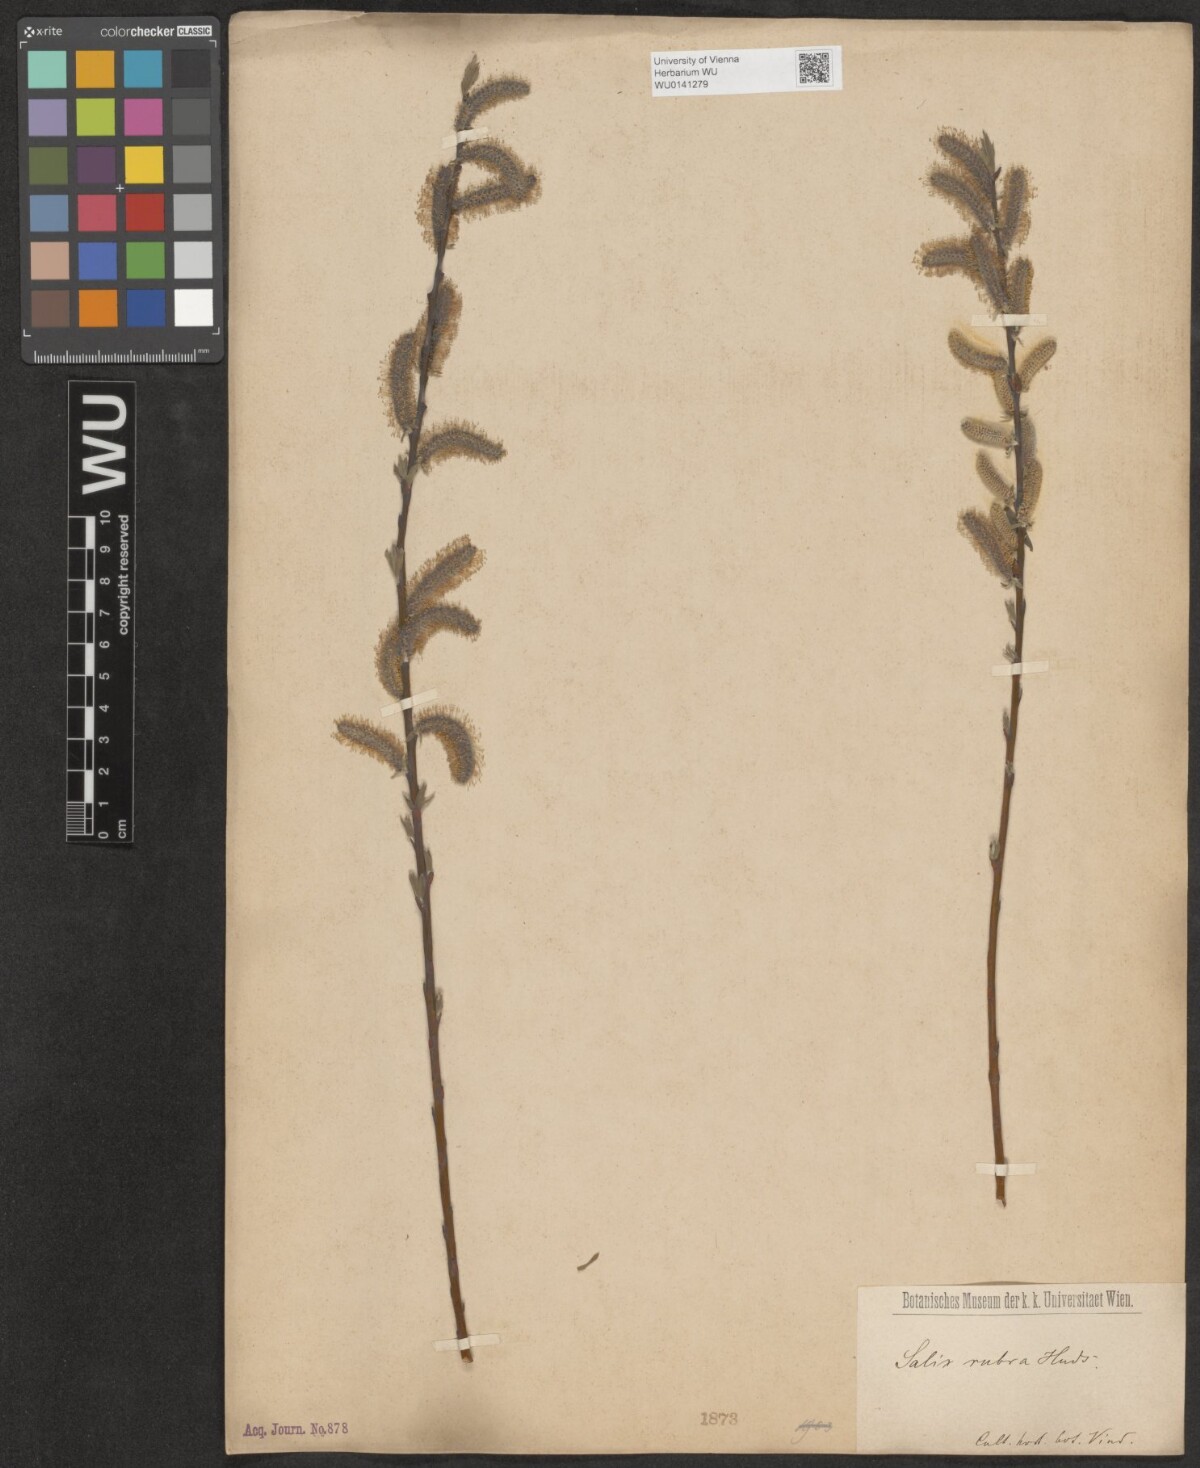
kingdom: Plantae
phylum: Tracheophyta
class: Magnoliopsida
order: Malpighiales
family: Salicaceae
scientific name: Salicaceae
